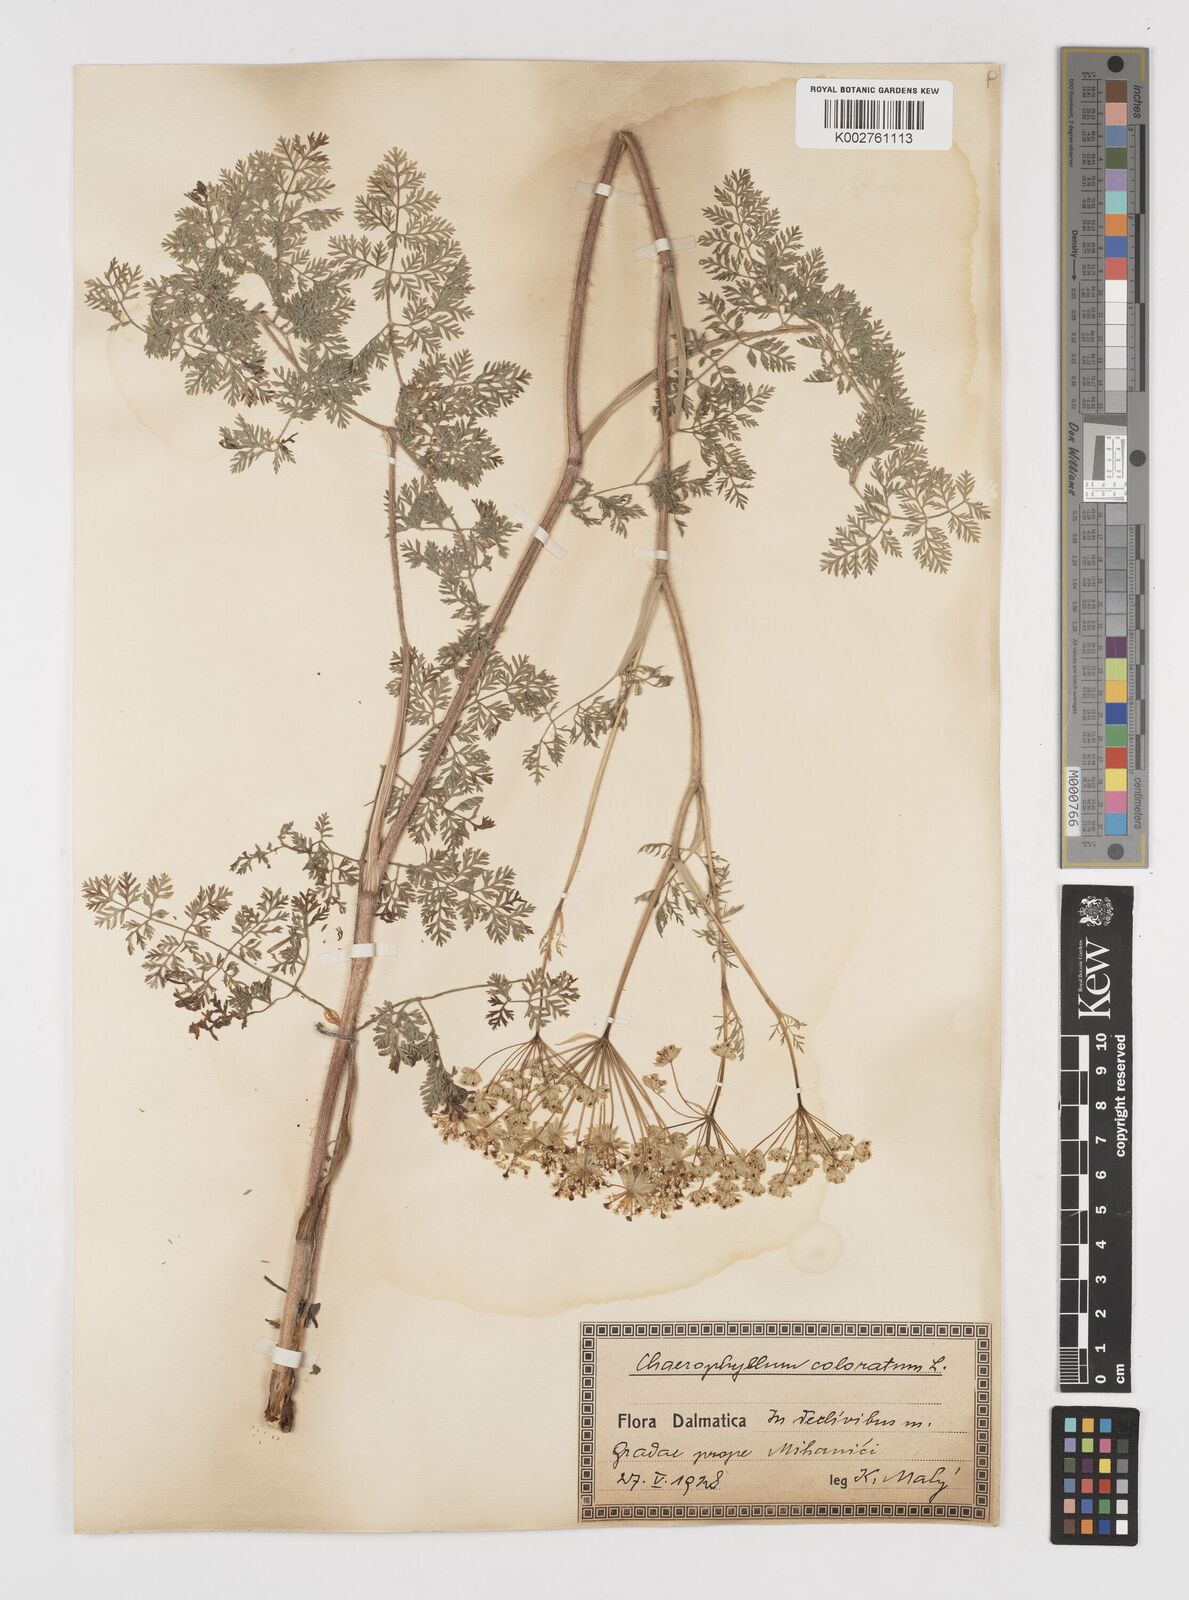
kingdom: Plantae
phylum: Tracheophyta
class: Magnoliopsida
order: Apiales
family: Apiaceae
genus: Chaerophyllum
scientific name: Chaerophyllum coloratum
